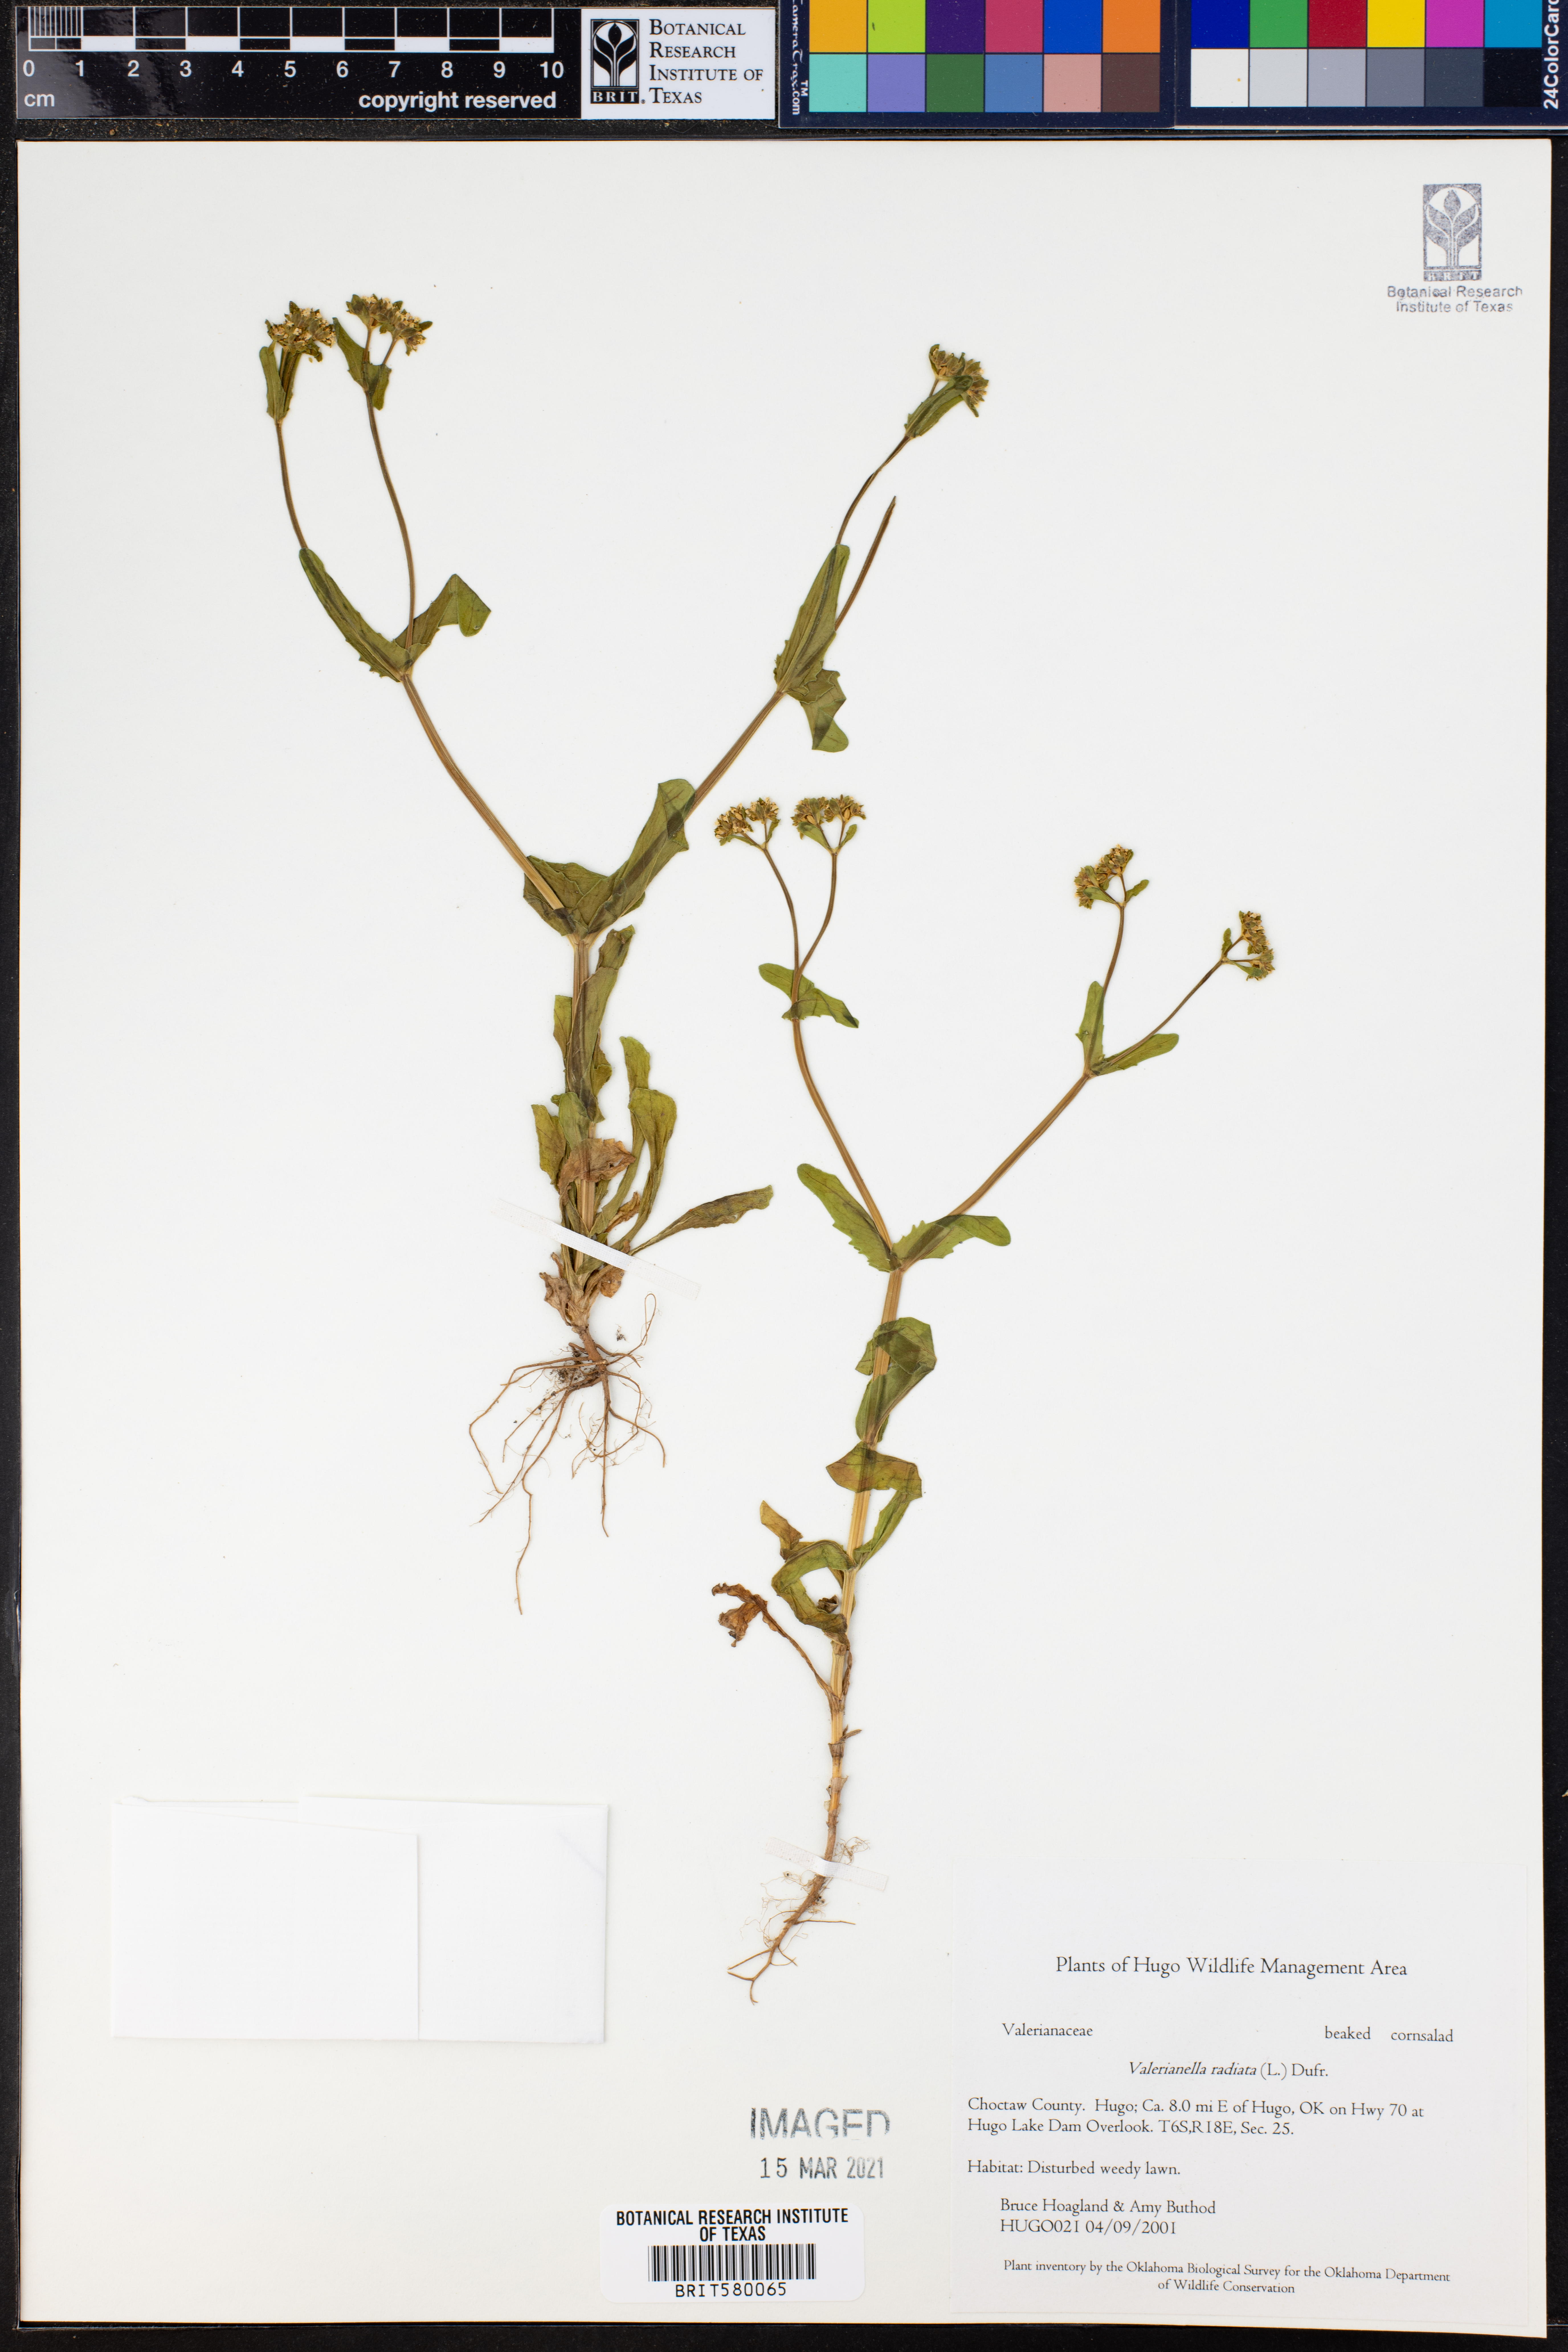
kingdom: Plantae
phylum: Tracheophyta
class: Magnoliopsida
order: Dipsacales
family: Caprifoliaceae
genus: Valerianella
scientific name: Valerianella radiata
